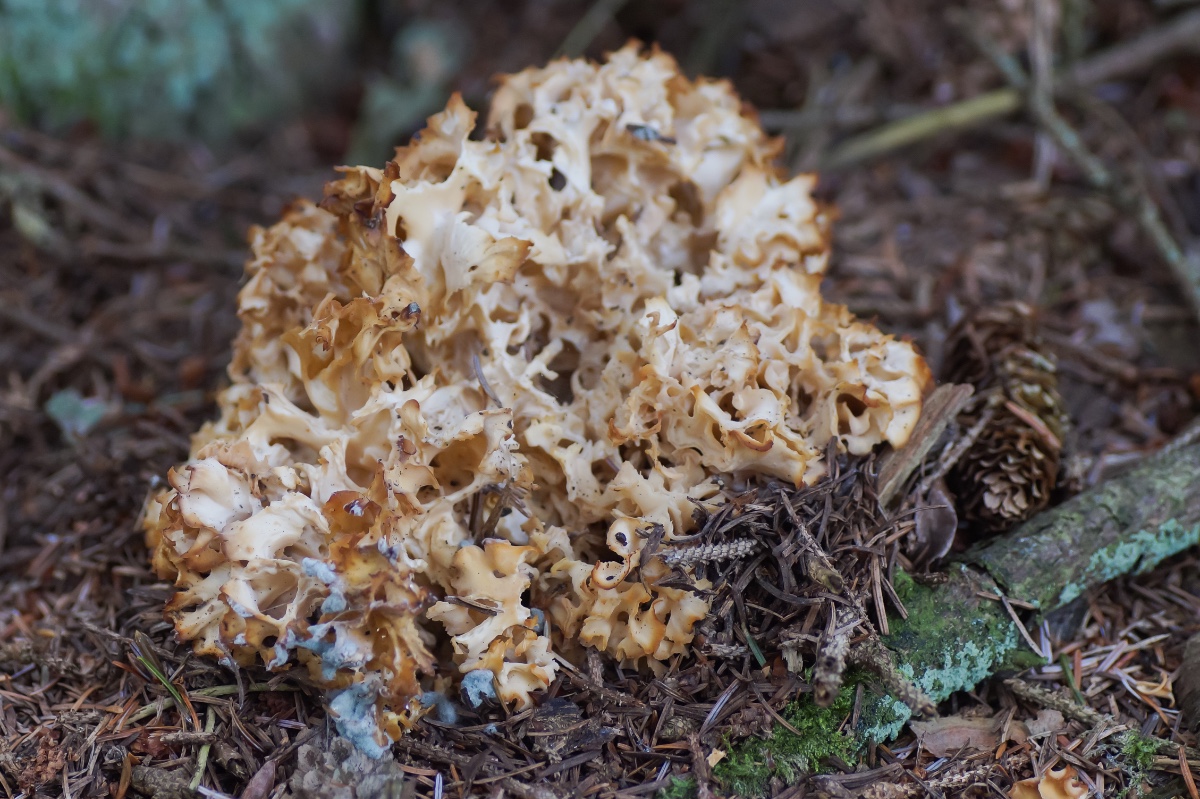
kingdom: Fungi
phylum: Basidiomycota
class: Agaricomycetes
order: Polyporales
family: Sparassidaceae
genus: Sparassis
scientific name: Sparassis crispa
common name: kruset blomkålssvamp
